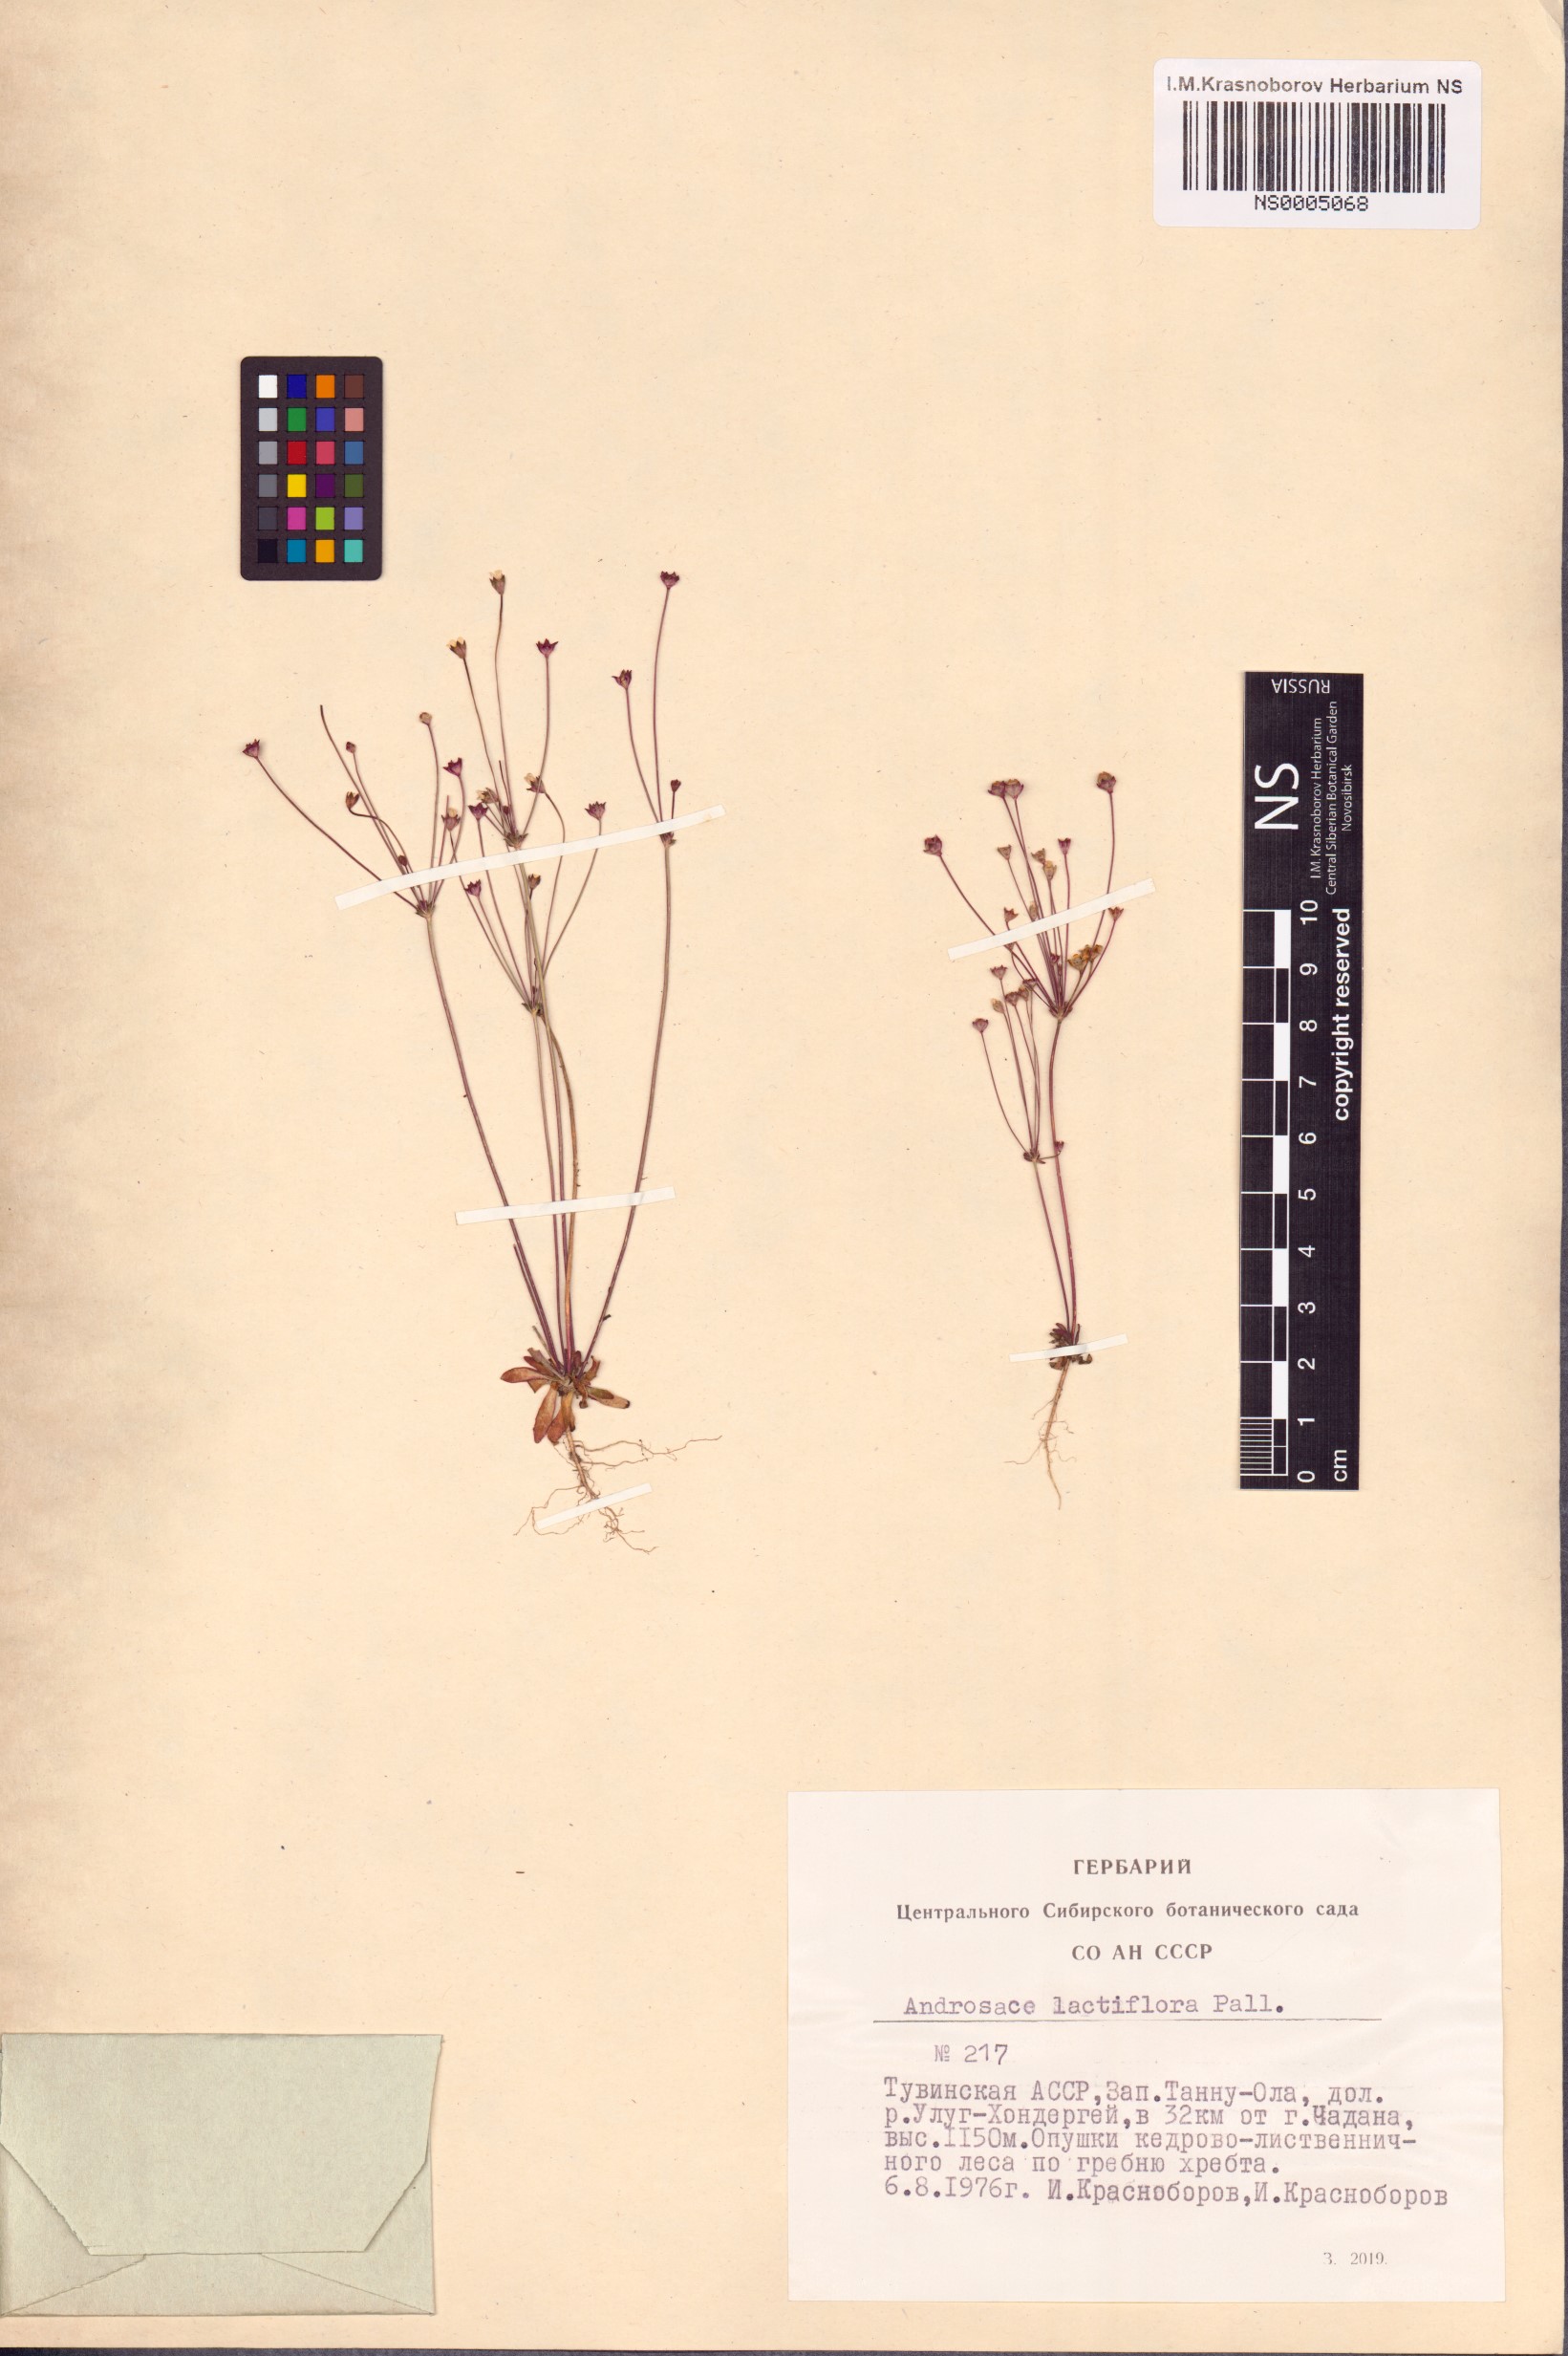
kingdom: Plantae
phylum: Tracheophyta
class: Magnoliopsida
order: Ericales
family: Primulaceae
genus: Androsace
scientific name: Androsace lactiflora
